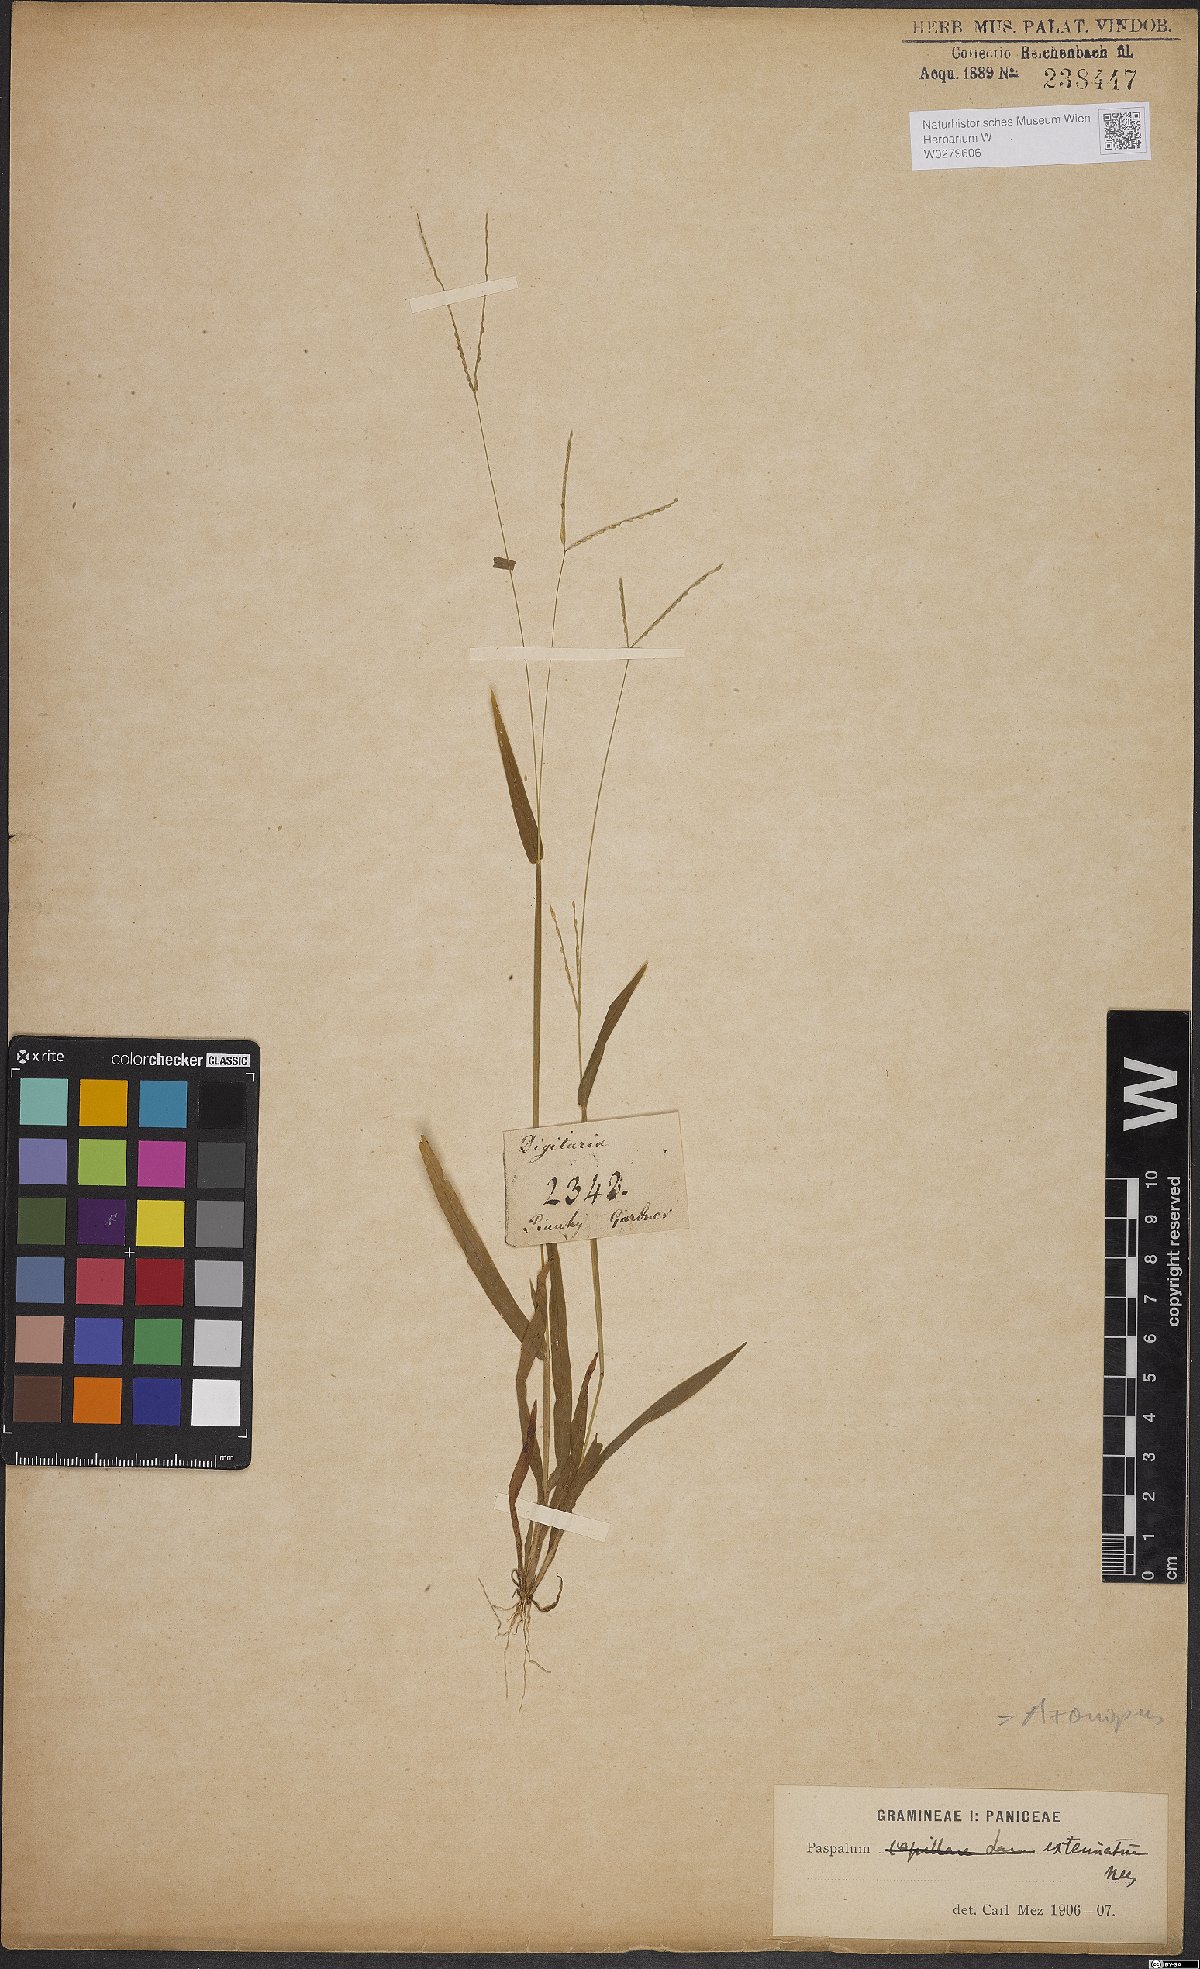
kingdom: Plantae
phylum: Tracheophyta
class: Liliopsida
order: Poales
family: Poaceae
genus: Axonopus
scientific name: Axonopus capillaris
